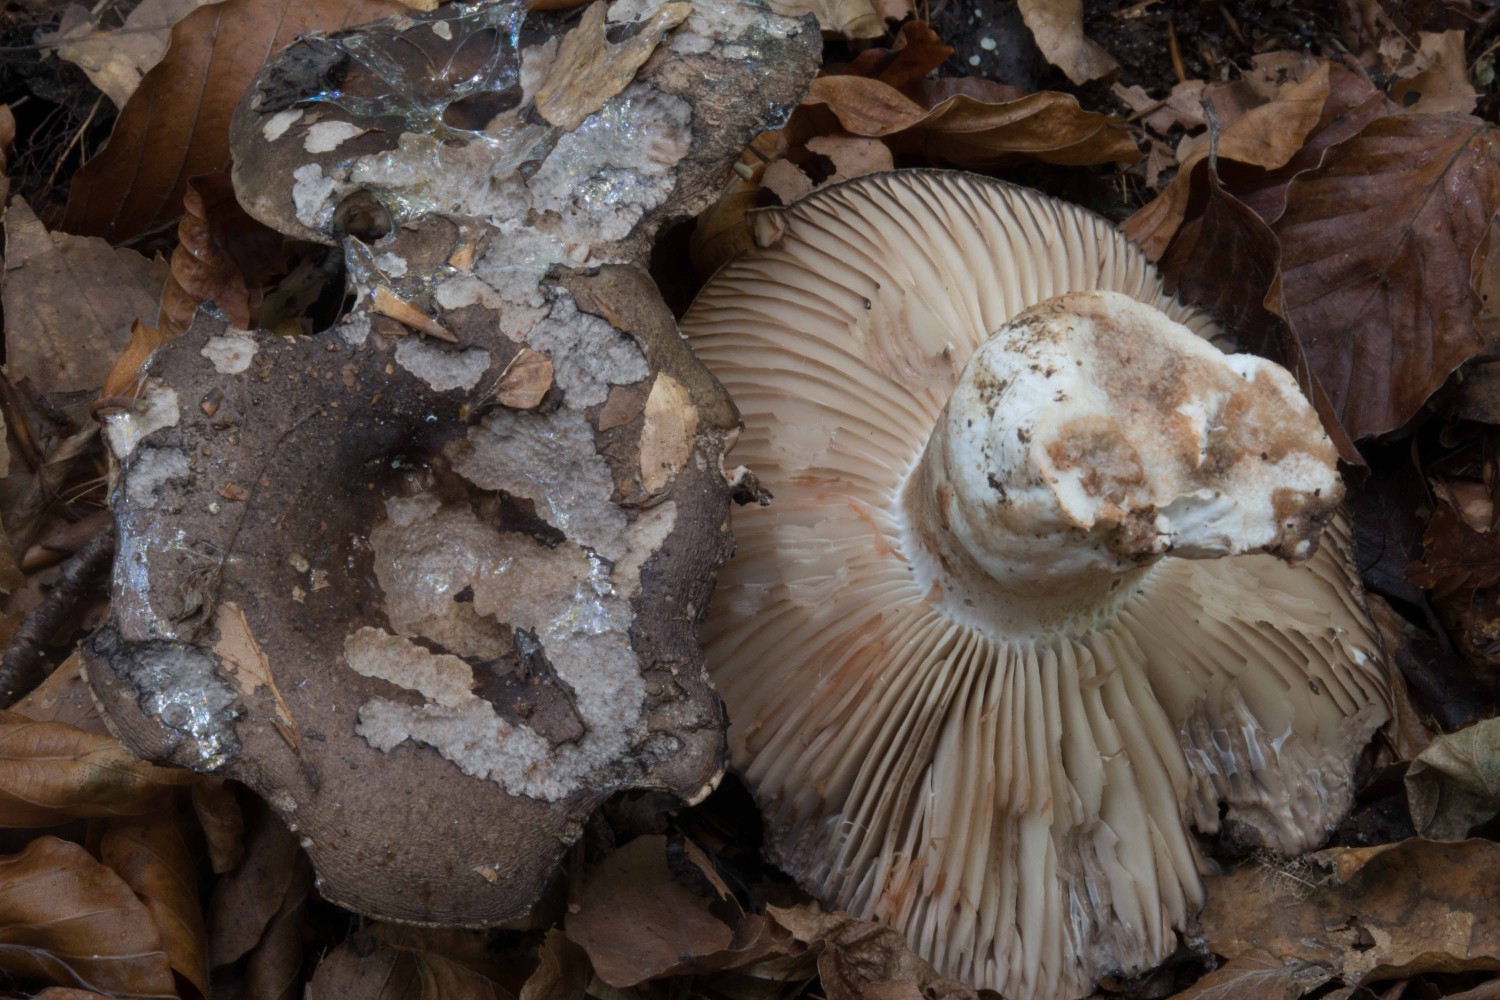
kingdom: Fungi
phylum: Basidiomycota
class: Agaricomycetes
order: Russulales
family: Russulaceae
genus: Russula
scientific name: Russula adusta
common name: sværtende skørhat
